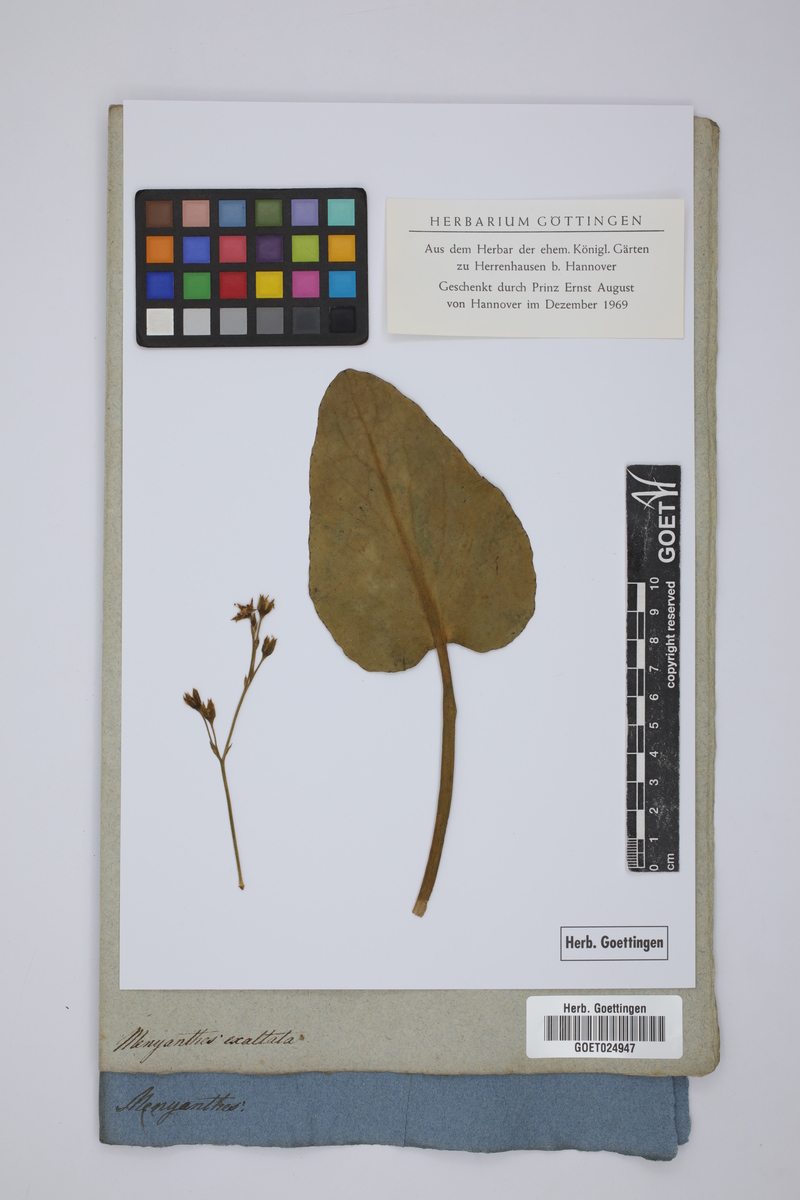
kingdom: Plantae
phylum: Tracheophyta
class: Magnoliopsida
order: Asterales
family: Menyanthaceae
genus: Liparophyllum
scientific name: Liparophyllum exaltatum
